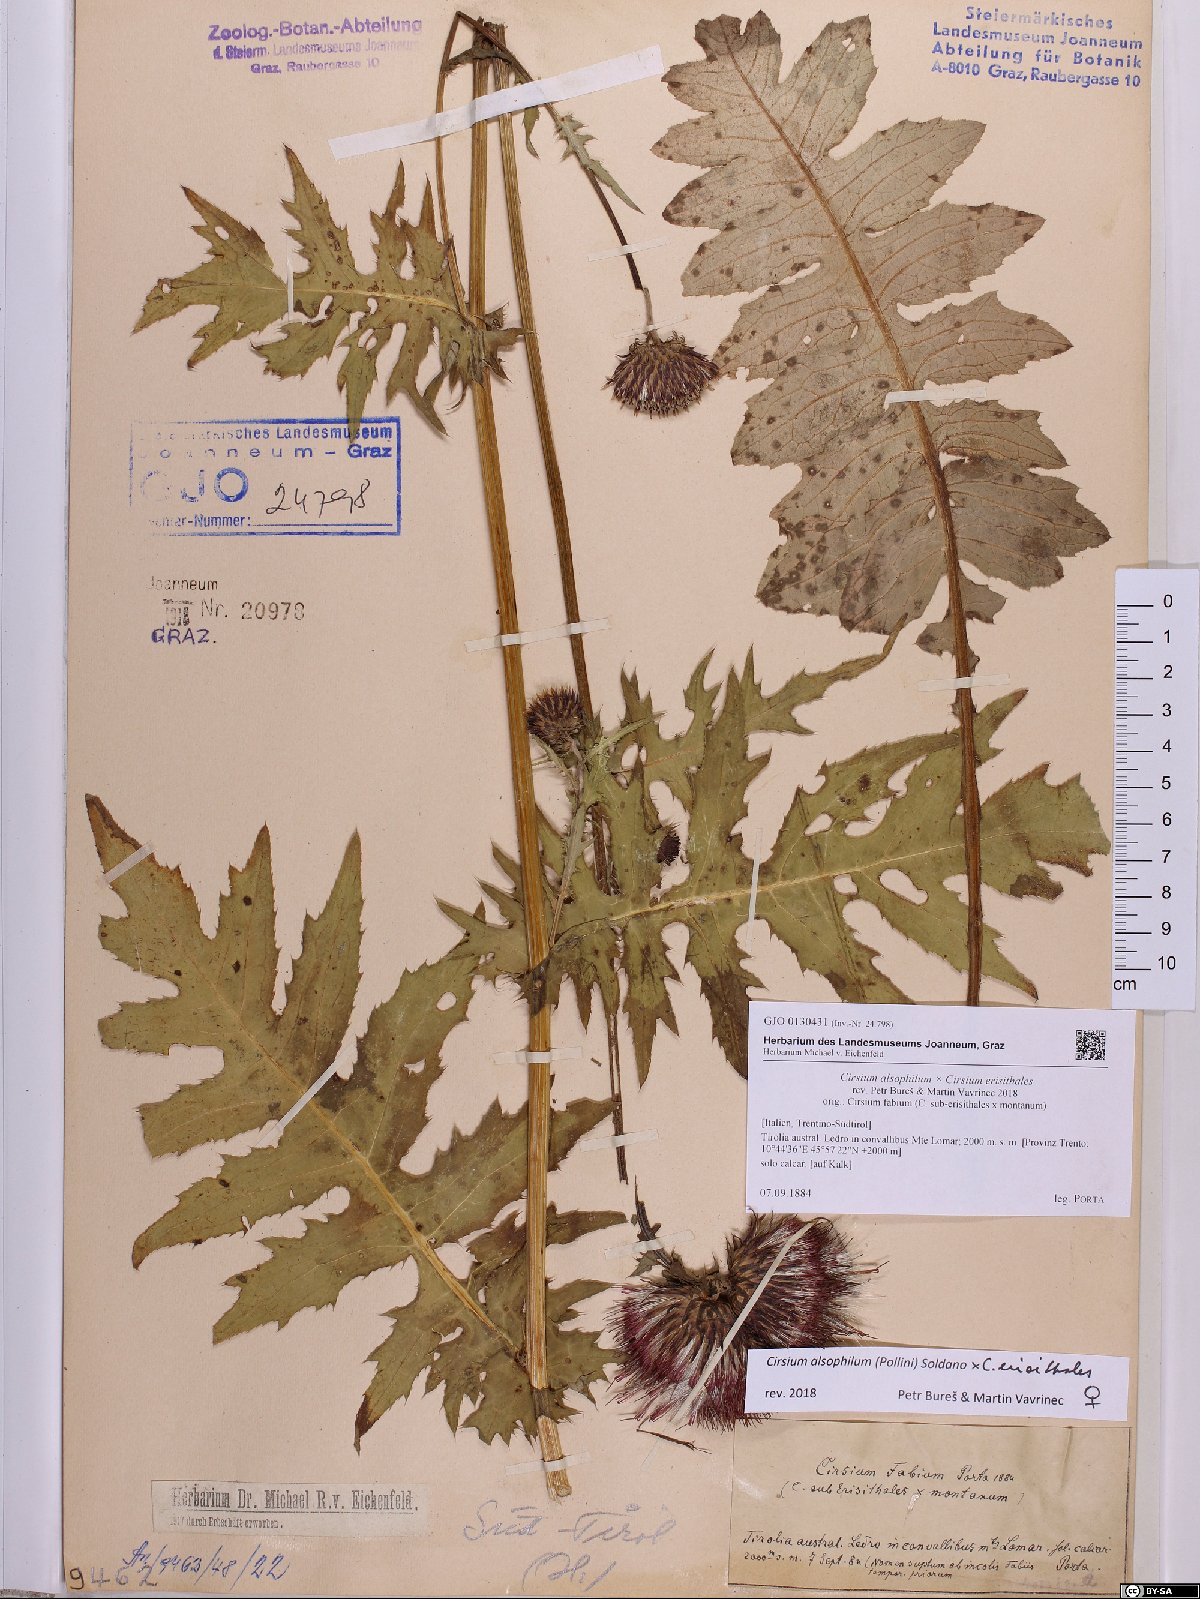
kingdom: Plantae
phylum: Tracheophyta
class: Magnoliopsida
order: Asterales
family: Asteraceae
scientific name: Asteraceae
